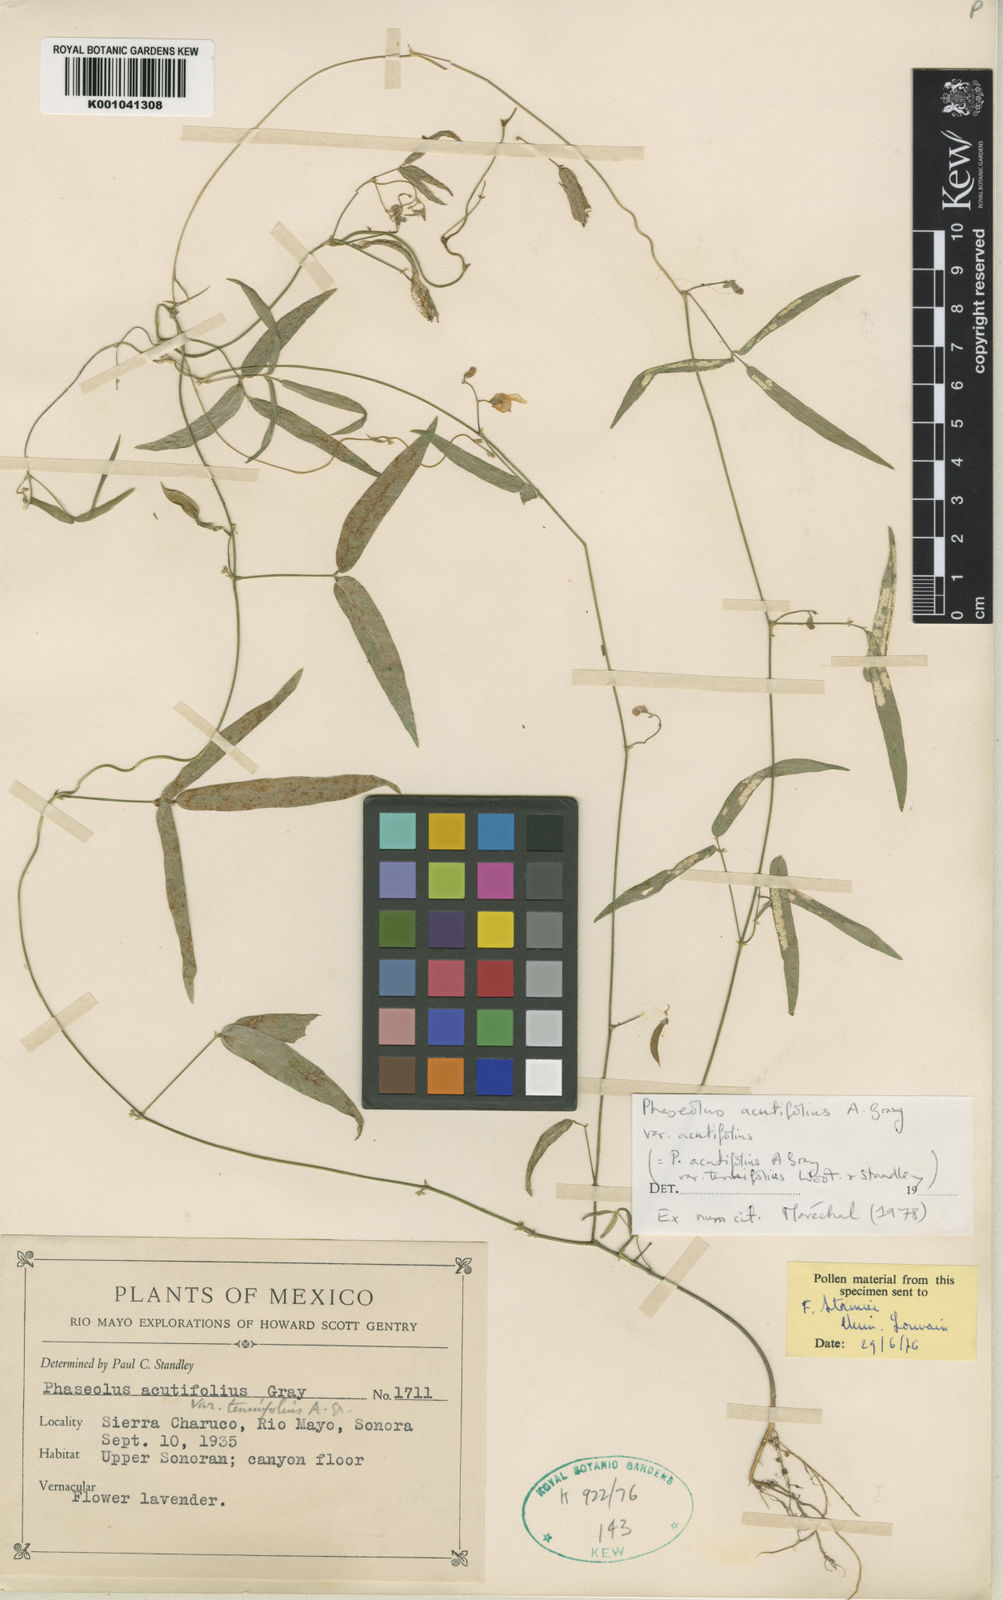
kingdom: Plantae
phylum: Tracheophyta
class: Magnoliopsida
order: Fabales
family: Fabaceae
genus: Phaseolus
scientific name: Phaseolus acutifolius
